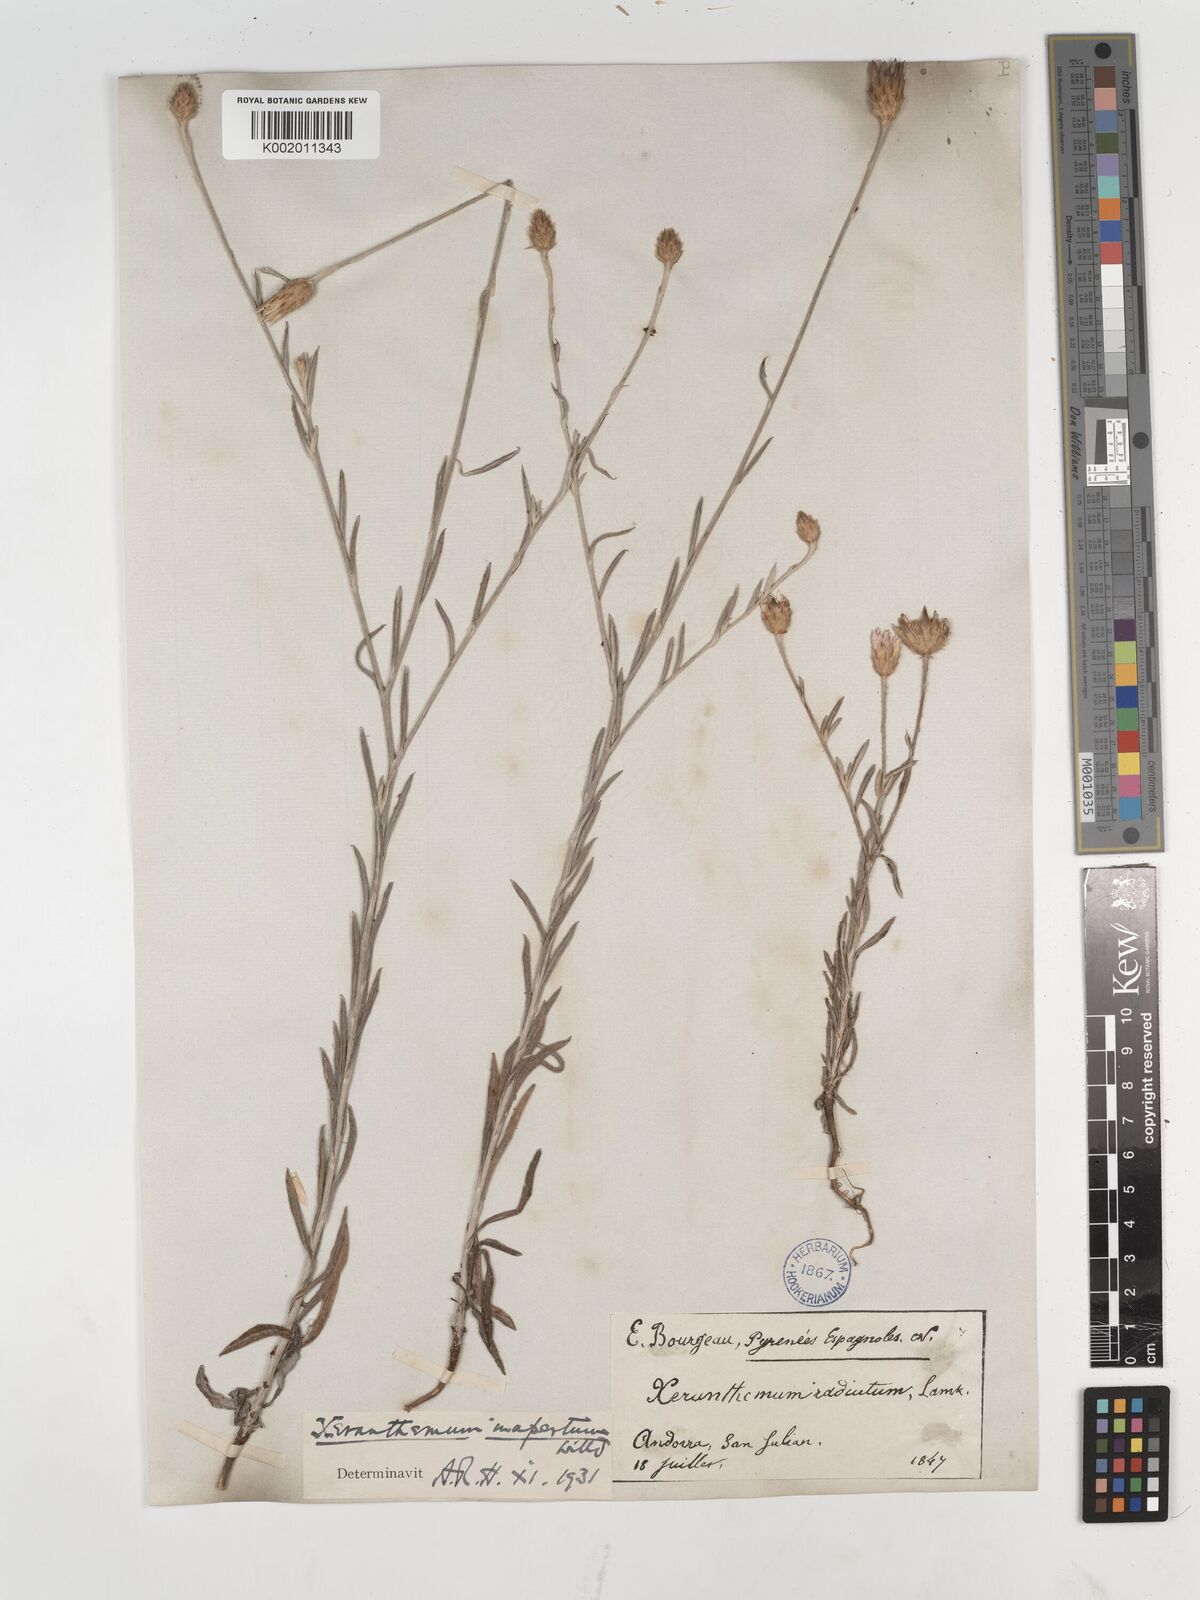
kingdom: Plantae
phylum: Tracheophyta
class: Magnoliopsida
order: Asterales
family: Asteraceae
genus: Xeranthemum
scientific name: Xeranthemum inapertum
